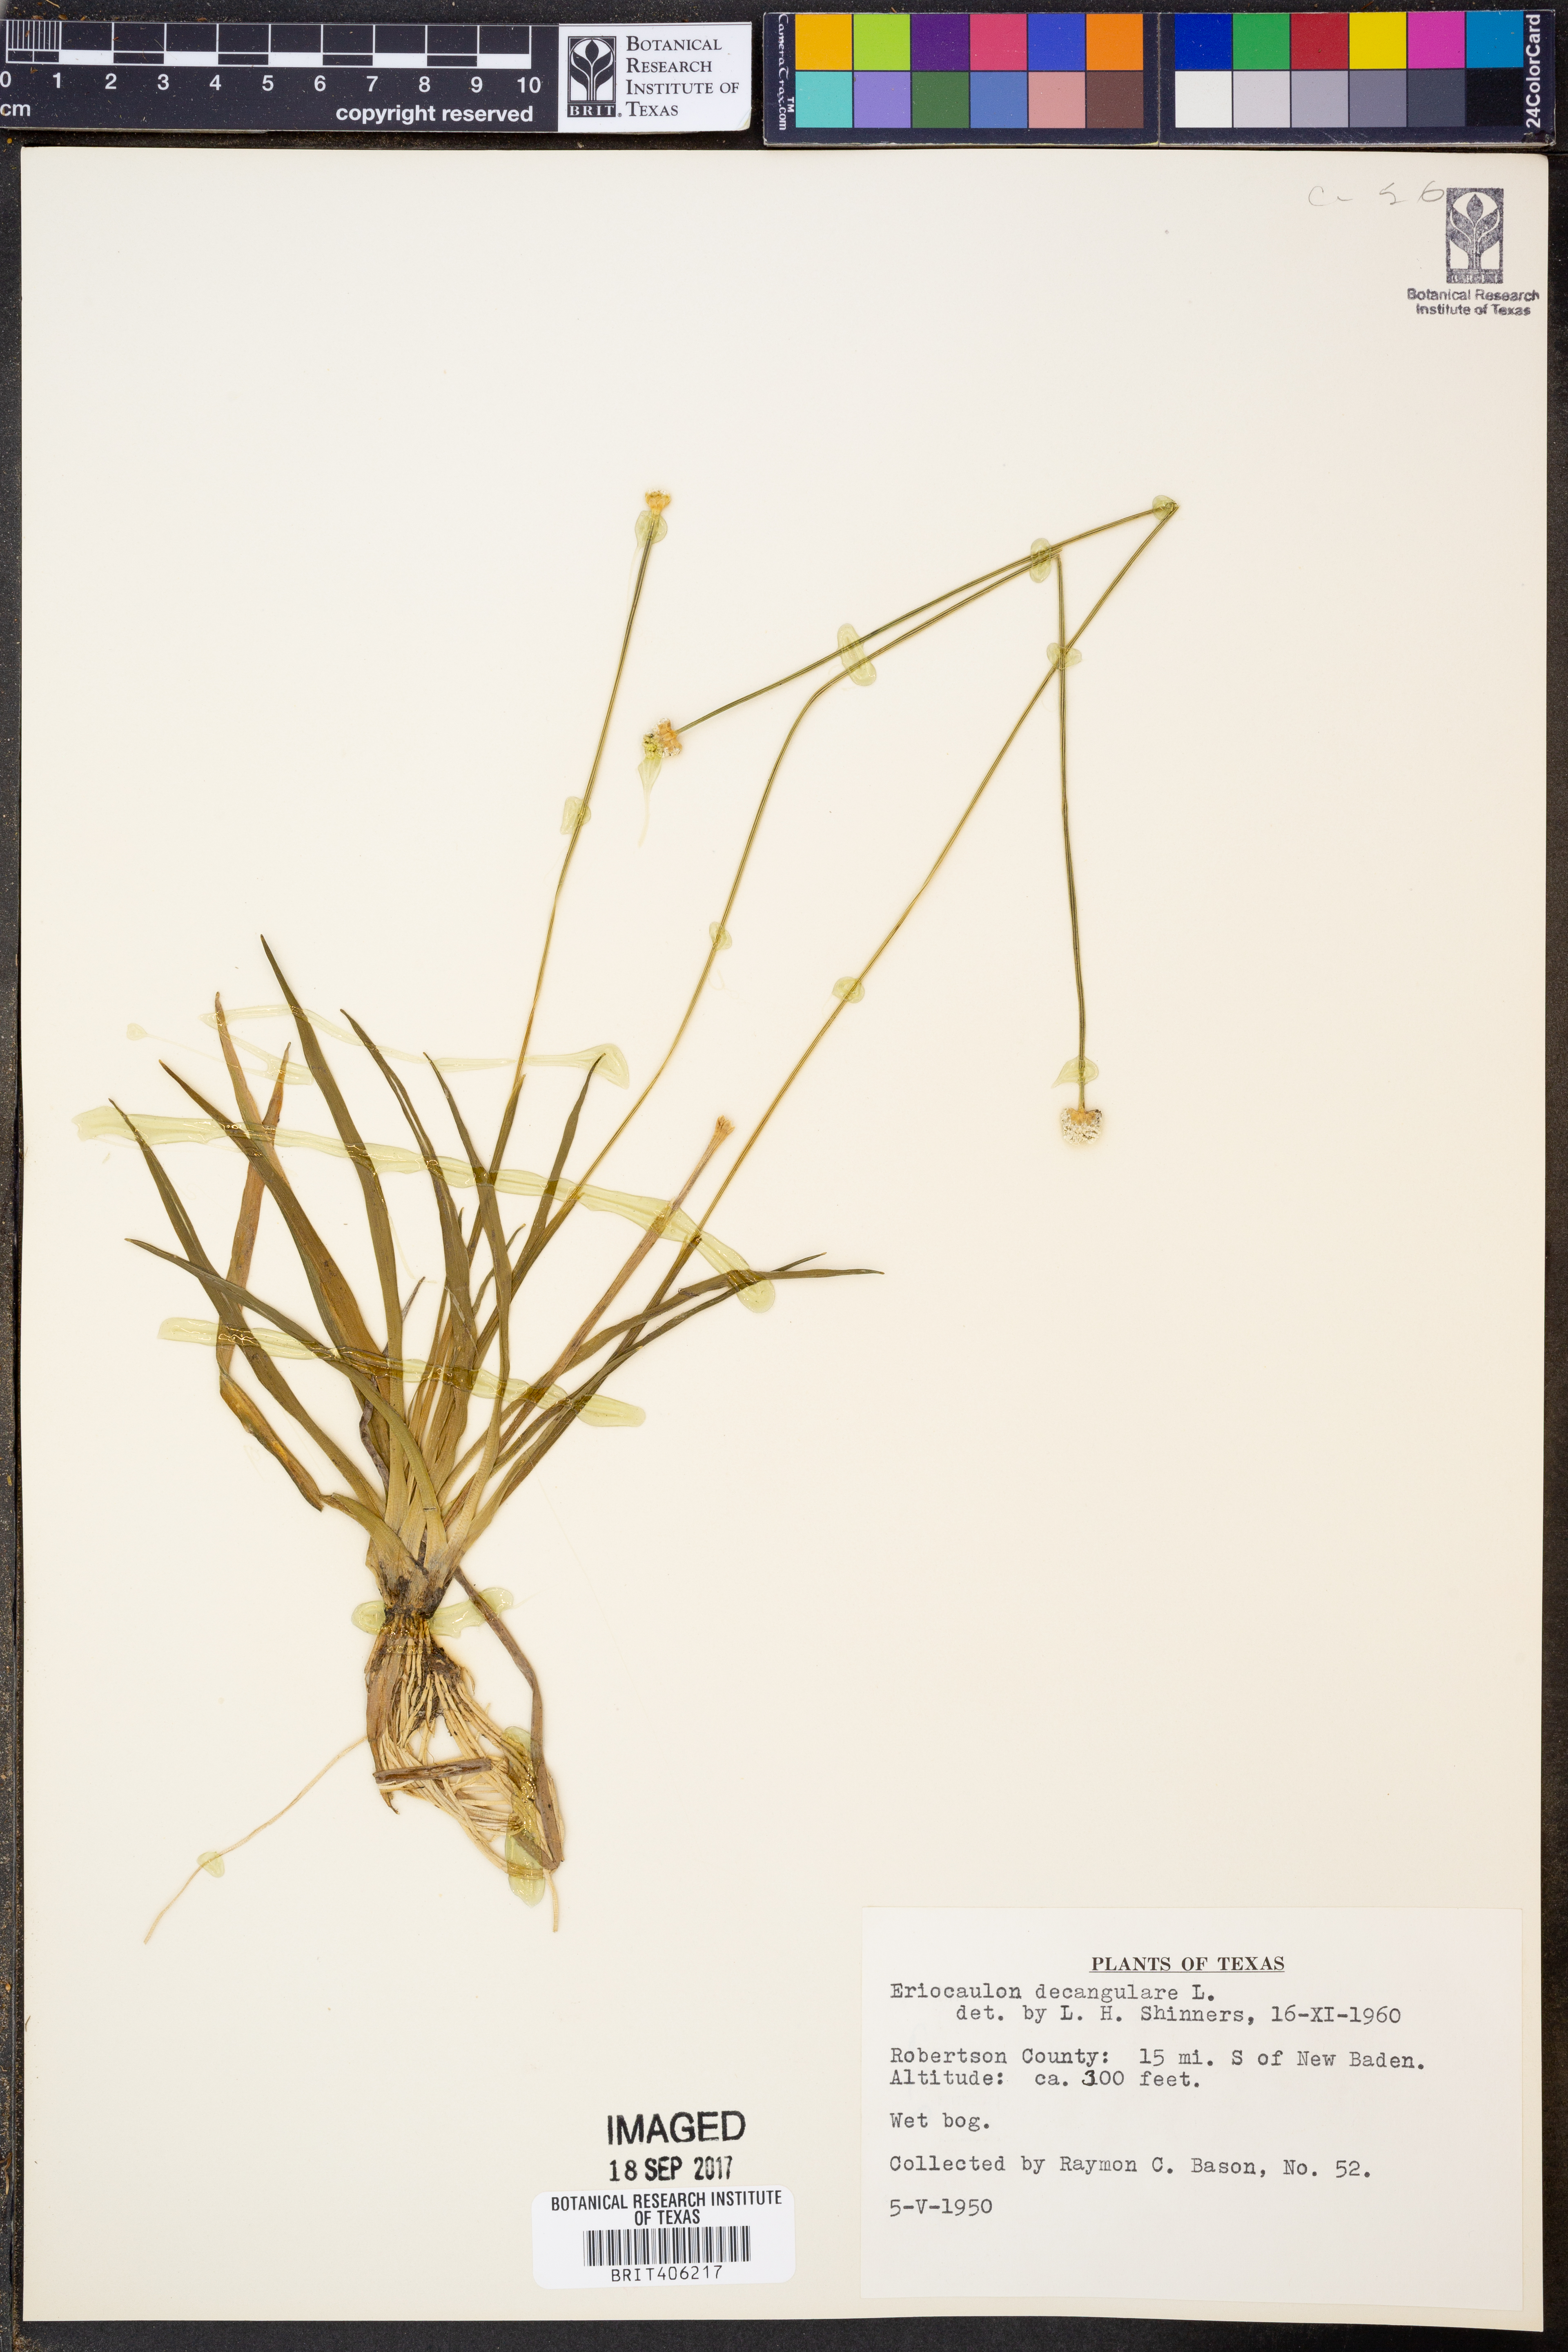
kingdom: Plantae
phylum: Tracheophyta
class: Liliopsida
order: Poales
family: Eriocaulaceae
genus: Eriocaulon
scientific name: Eriocaulon decangulare
